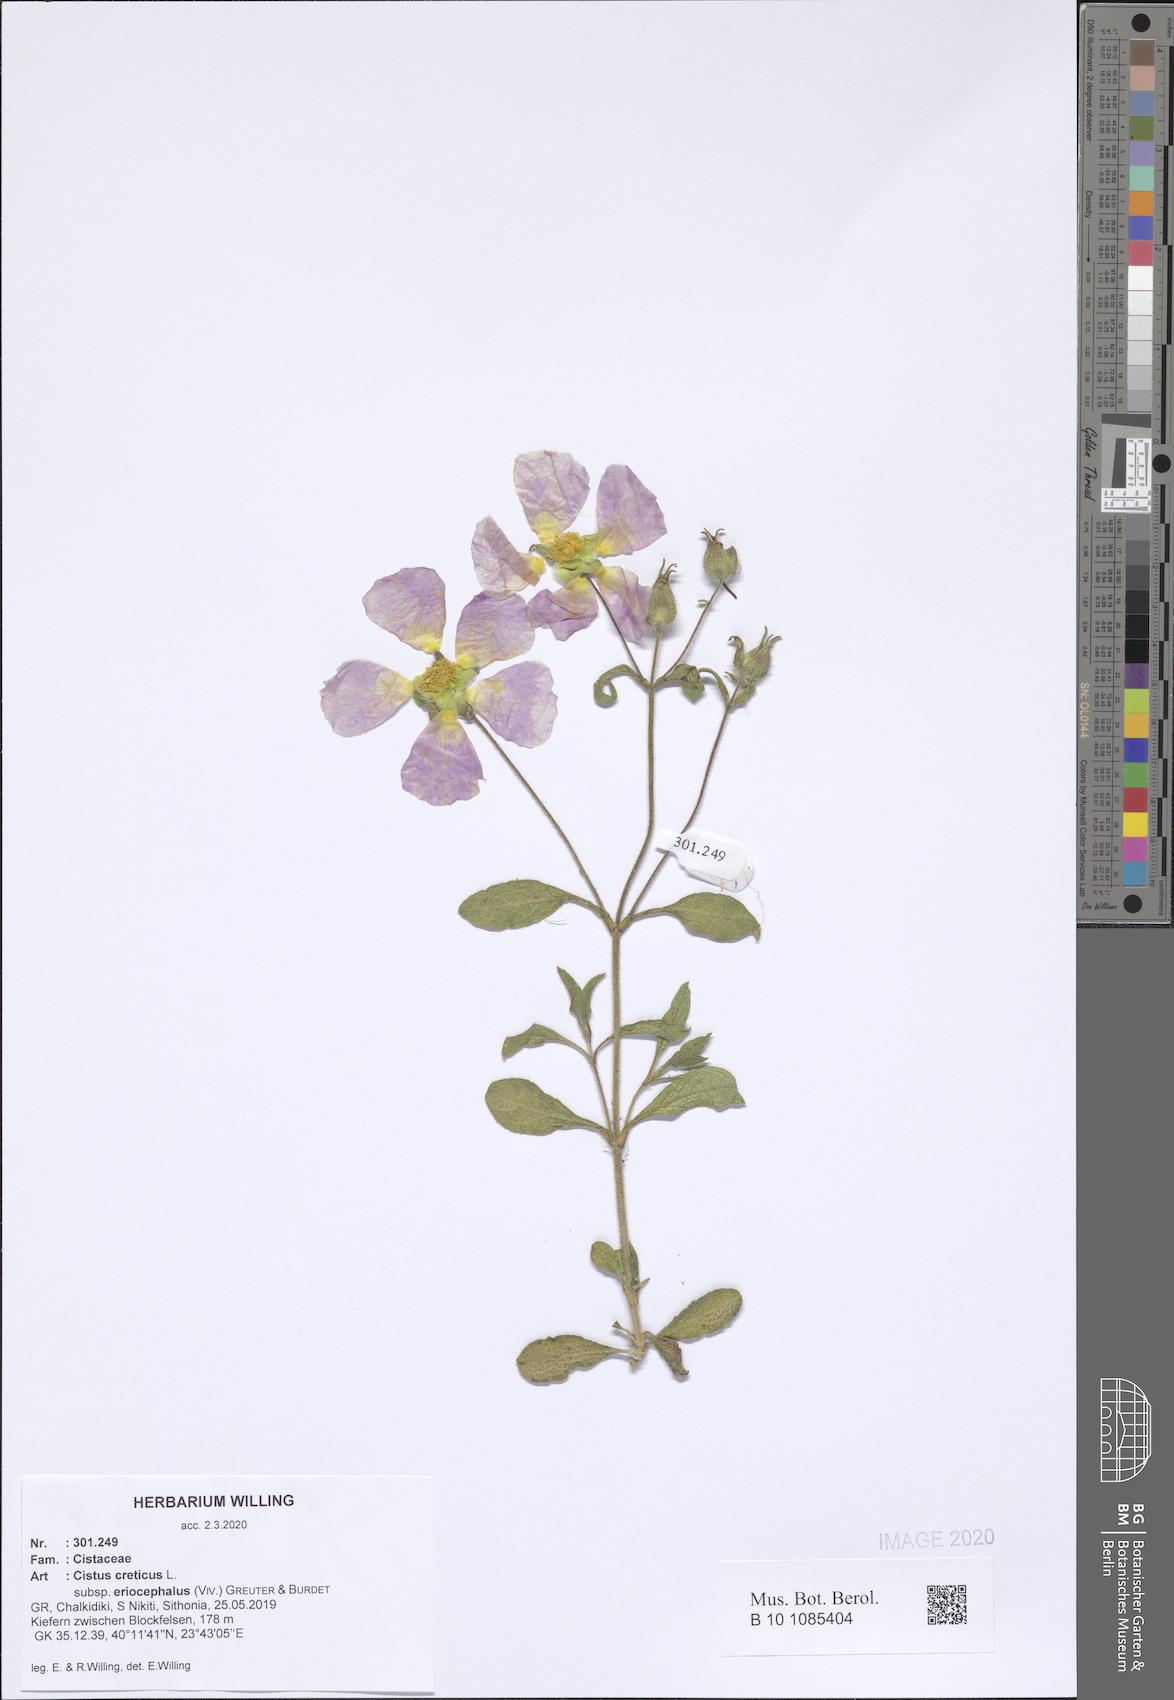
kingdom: Plantae
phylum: Tracheophyta
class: Magnoliopsida
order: Malvales
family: Cistaceae
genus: Cistus
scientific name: Cistus tauricus
